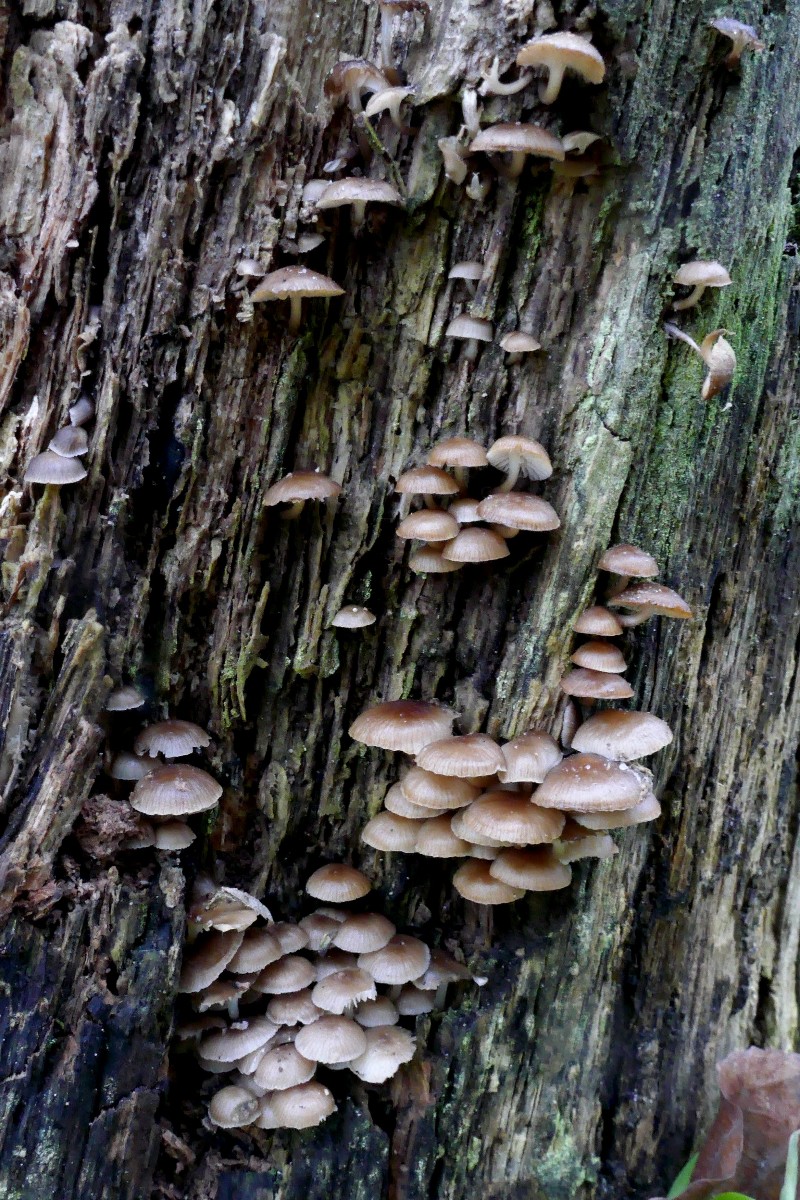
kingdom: Fungi
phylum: Basidiomycota
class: Agaricomycetes
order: Agaricales
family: Mycenaceae
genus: Mycena
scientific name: Mycena tintinnabulum
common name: vinter-huesvamp
